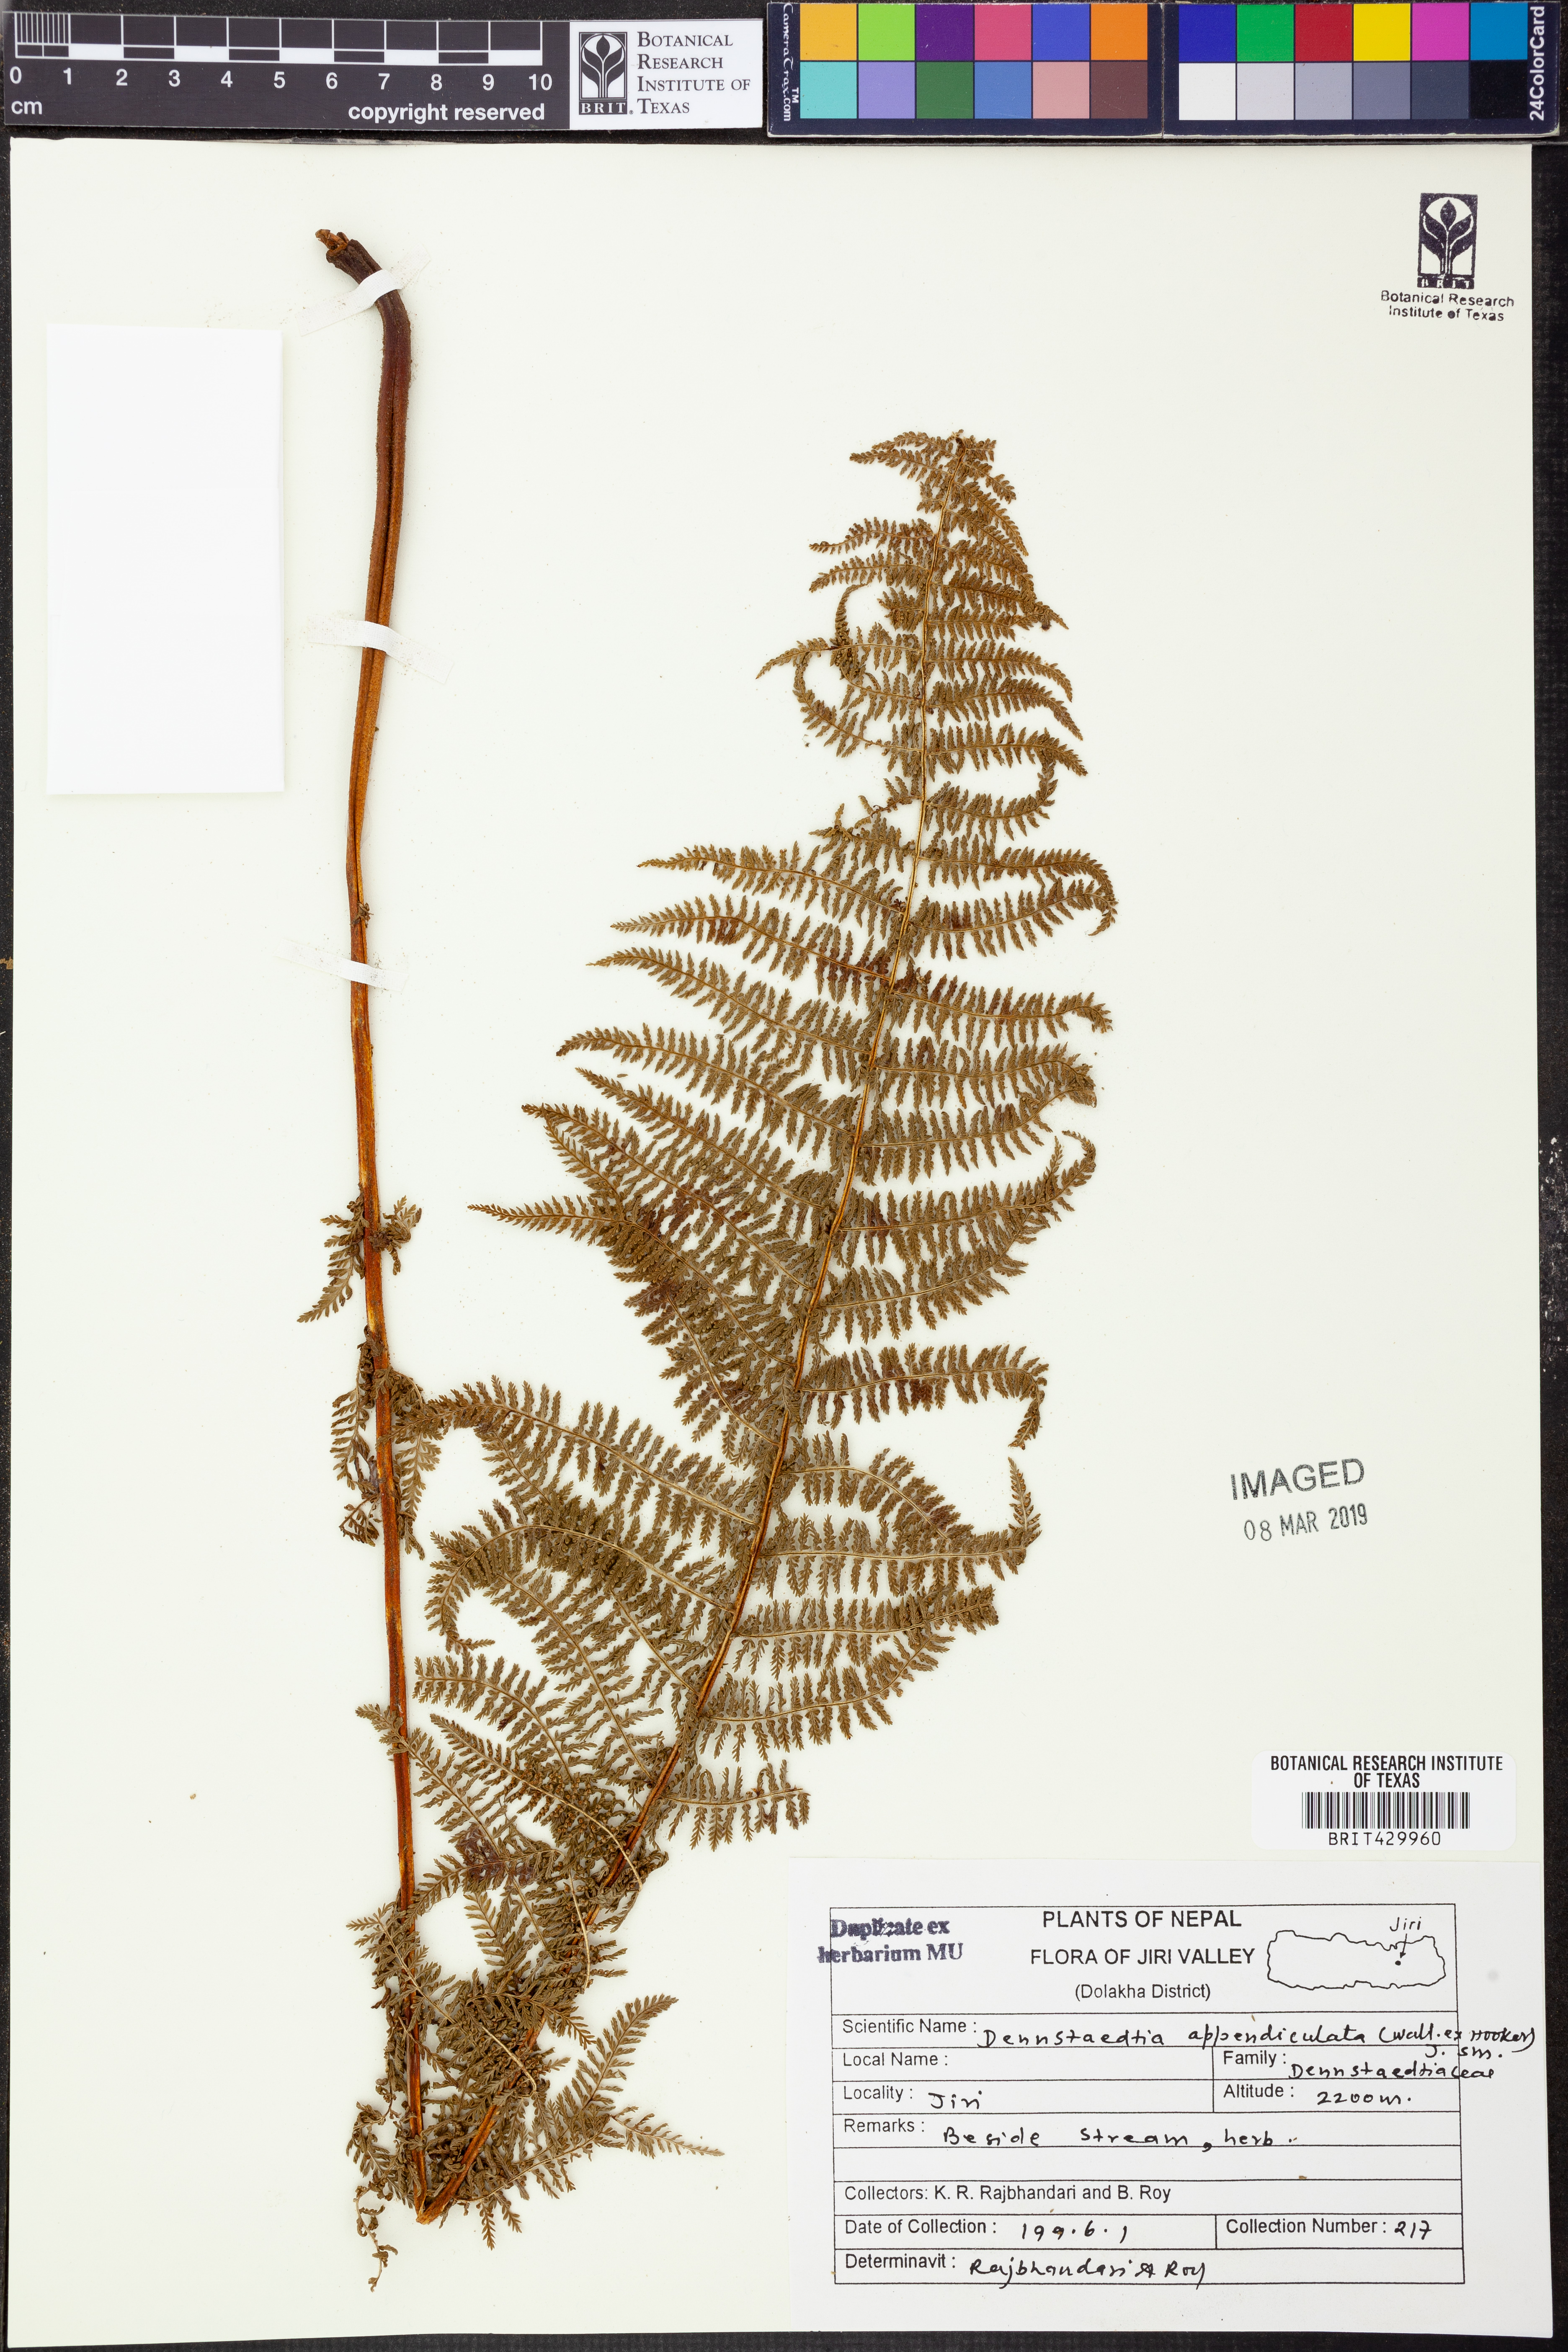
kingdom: Plantae
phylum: Tracheophyta
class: Polypodiopsida
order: Polypodiales
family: Dennstaedtiaceae
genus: Sitobolium
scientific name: Sitobolium appendiculatum
